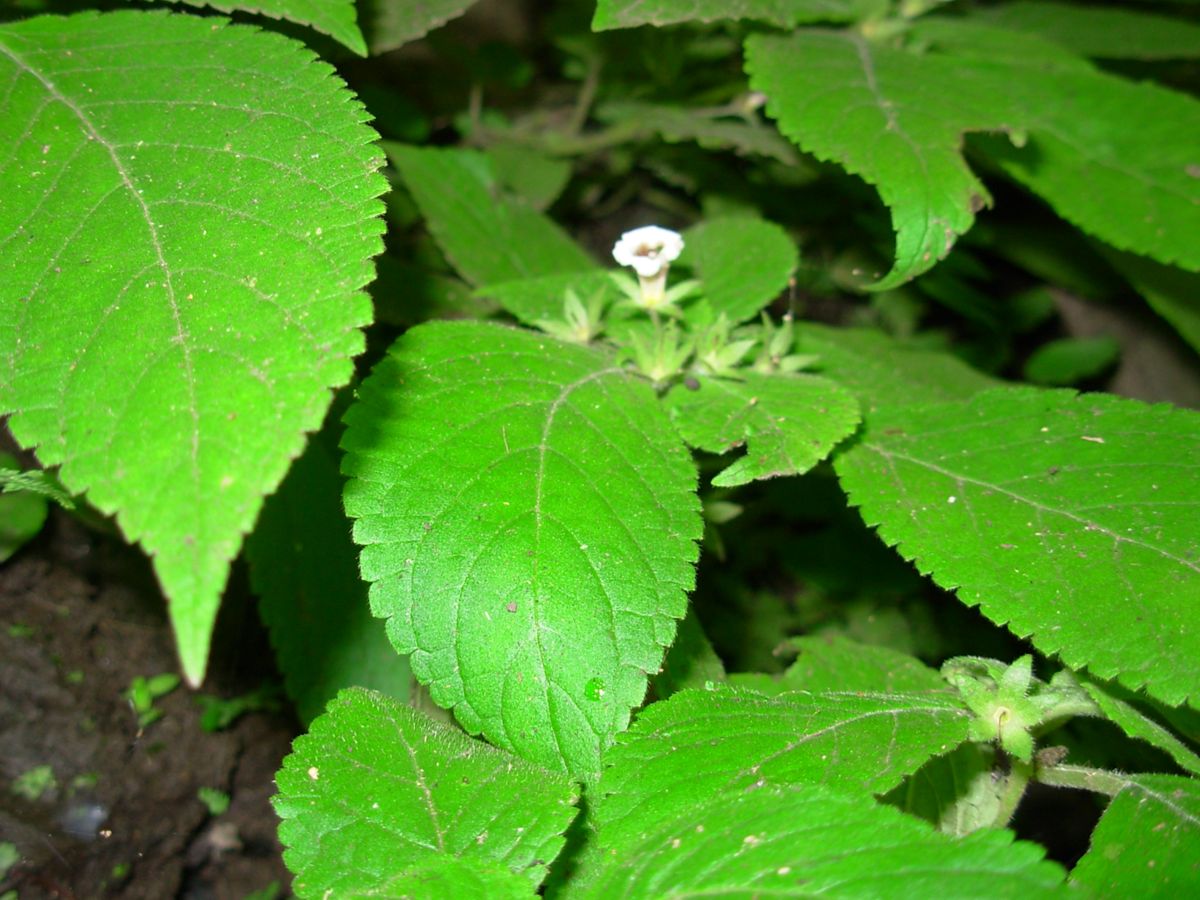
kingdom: Plantae
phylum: Tracheophyta
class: Magnoliopsida
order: Lamiales
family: Gesneriaceae
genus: Achimenes
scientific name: Achimenes misera
